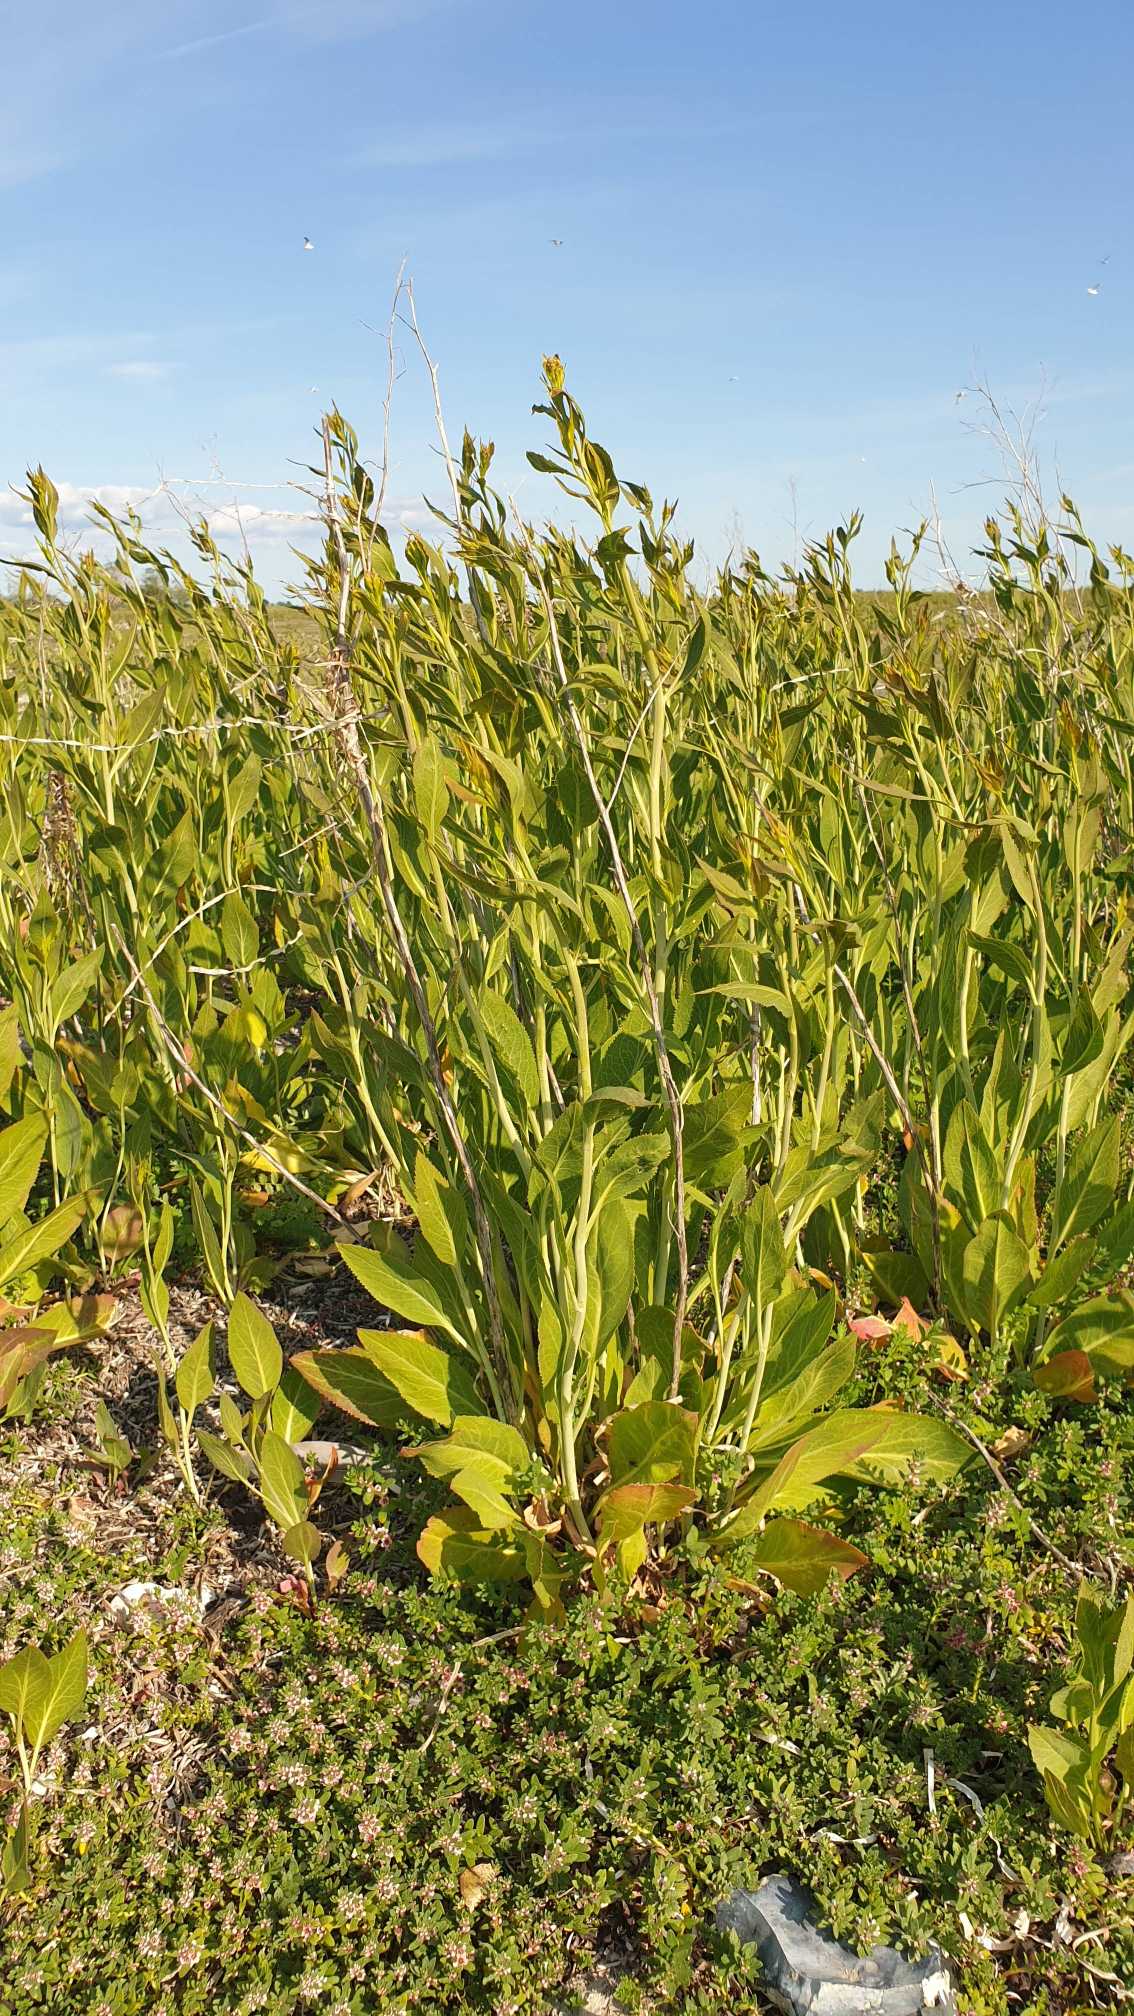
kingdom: Plantae
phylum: Tracheophyta
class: Magnoliopsida
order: Brassicales
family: Brassicaceae
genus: Lepidium
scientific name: Lepidium latifolium
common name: Strand-karse
